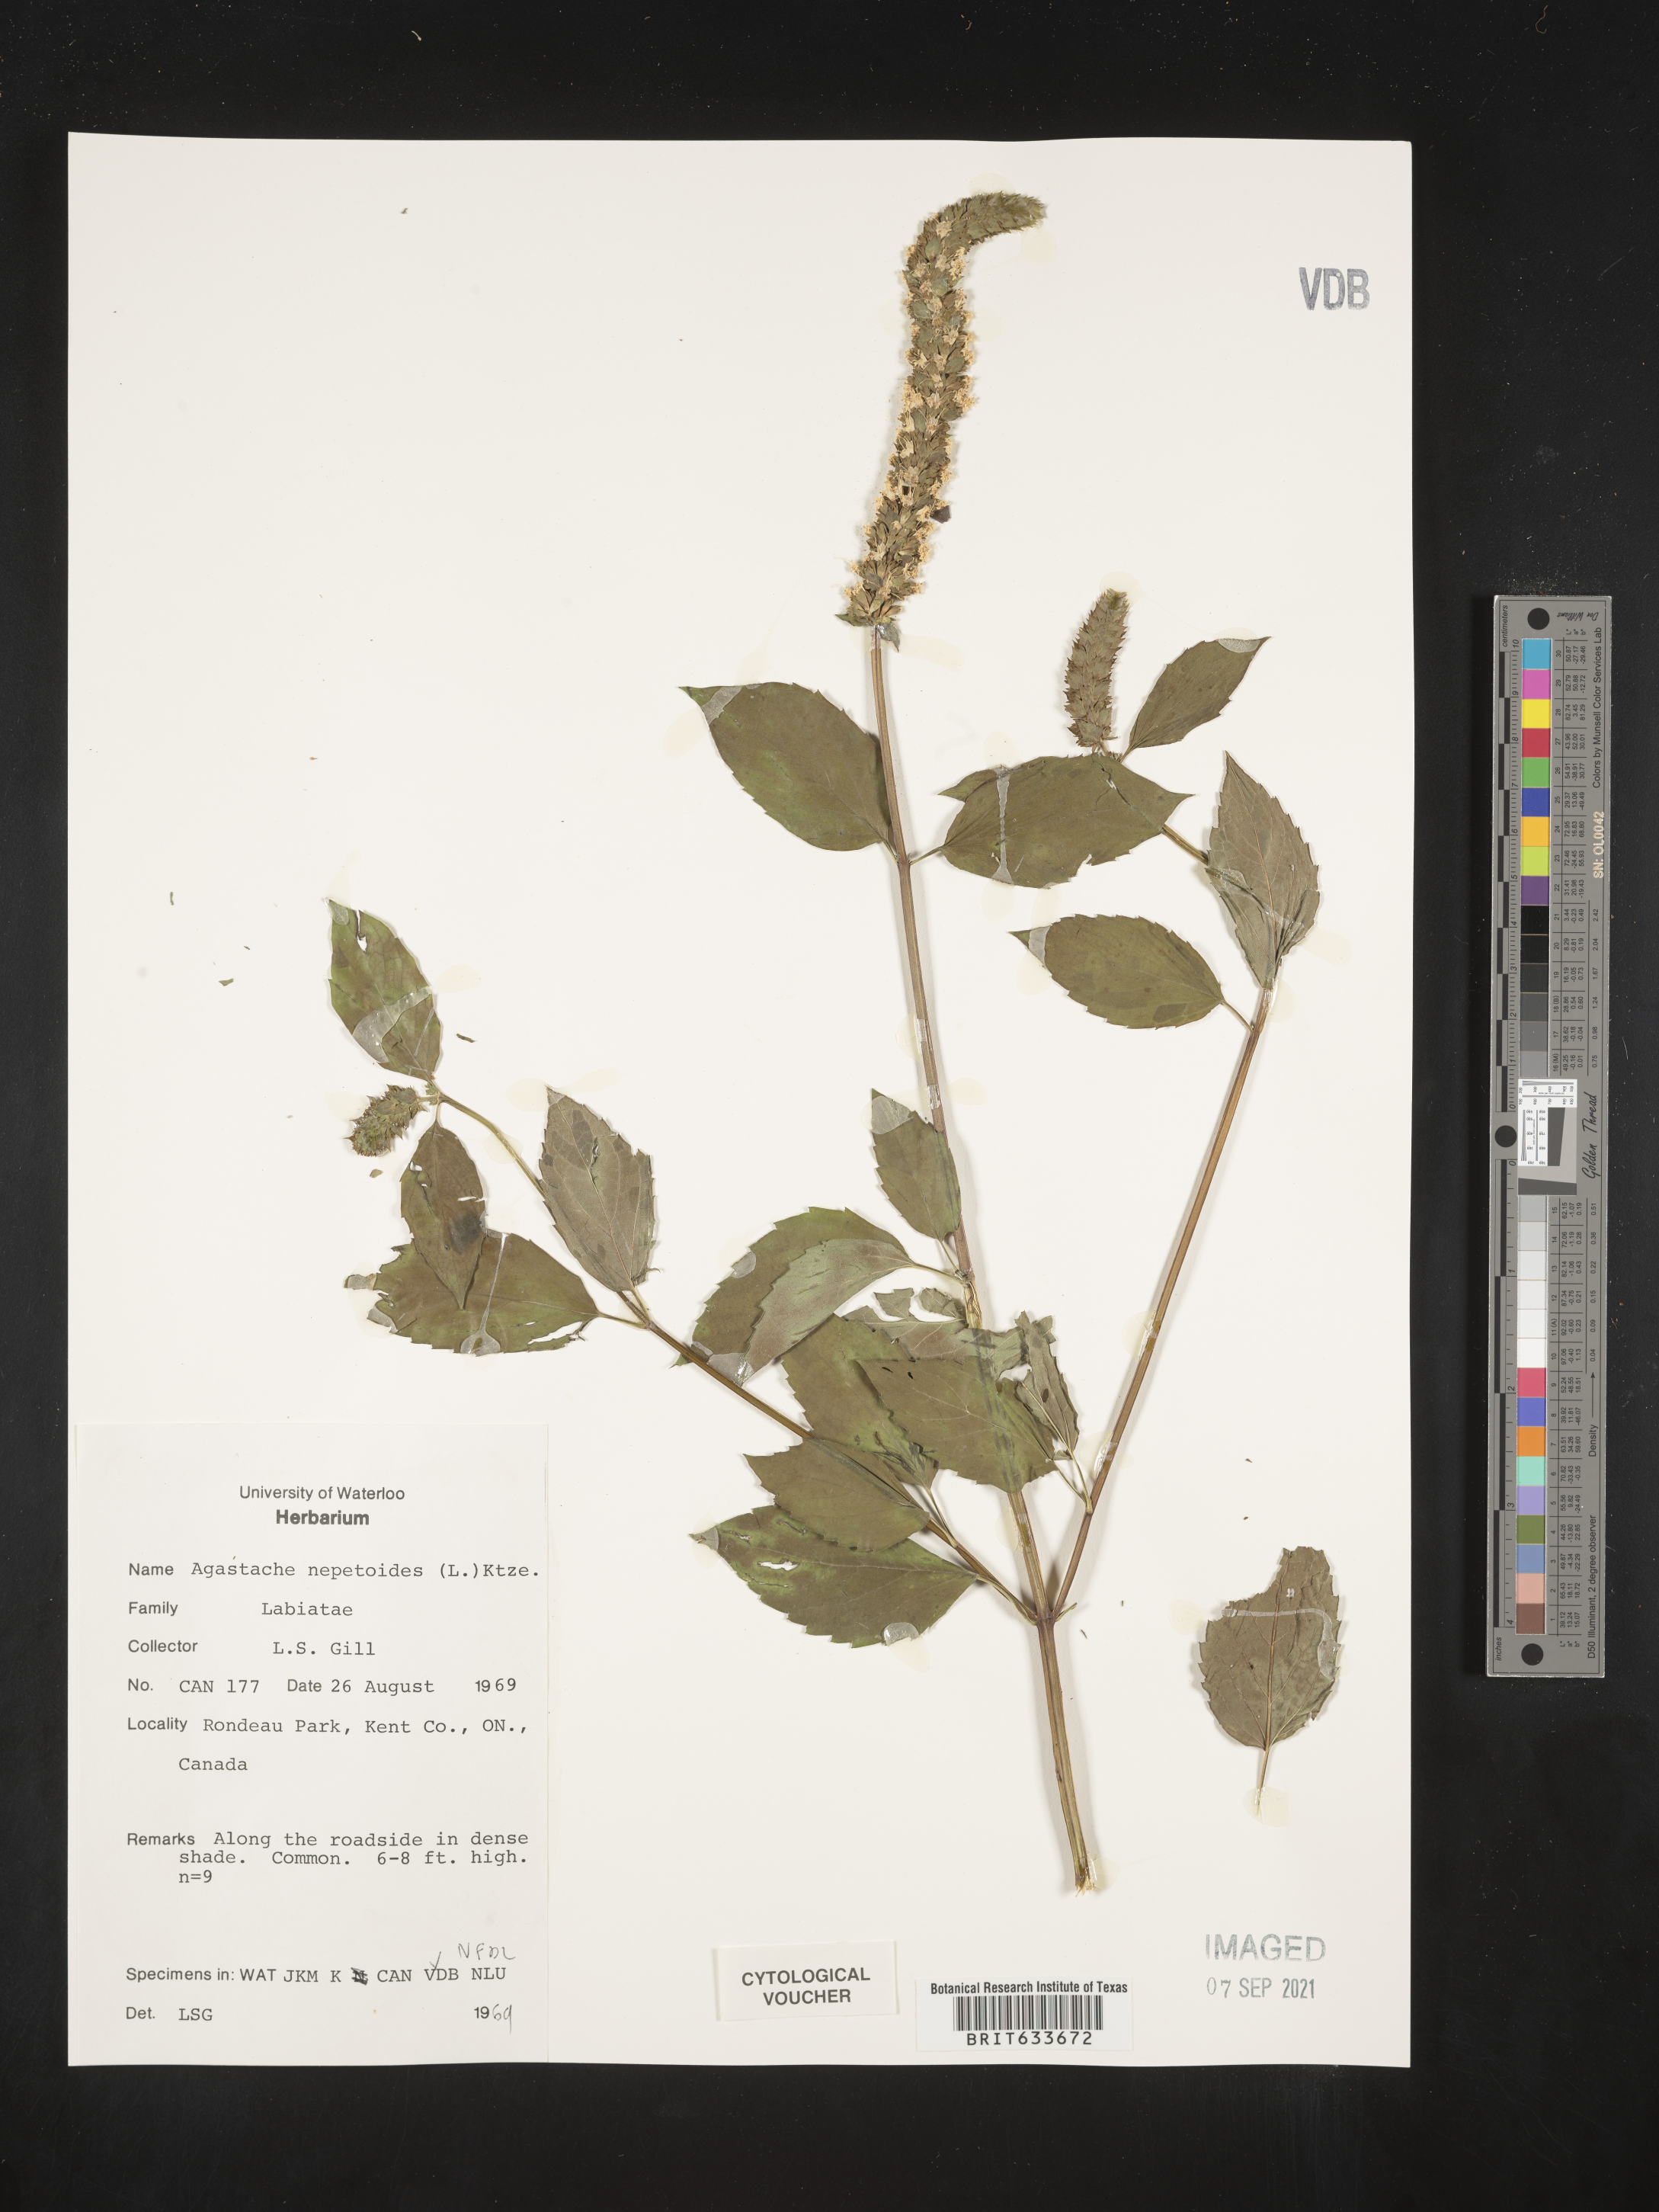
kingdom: Plantae
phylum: Tracheophyta
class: Magnoliopsida
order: Lamiales
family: Lamiaceae
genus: Agastache
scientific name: Agastache
